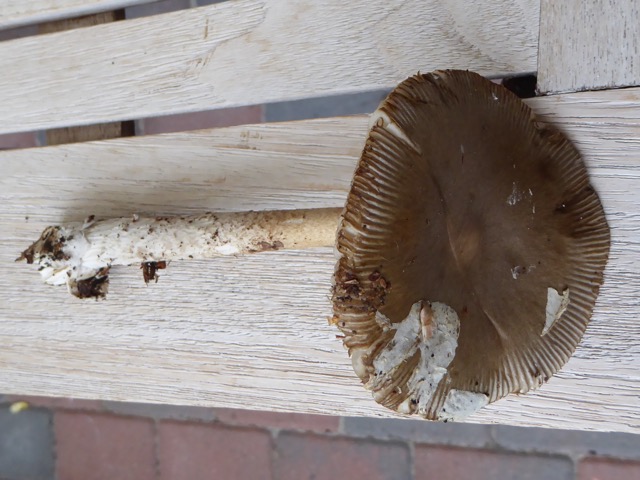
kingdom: Fungi
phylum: Basidiomycota
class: Agaricomycetes
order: Agaricales
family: Amanitaceae
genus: Amanita
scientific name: Amanita submembranacea
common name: gråspættet kam-fluesvamp
